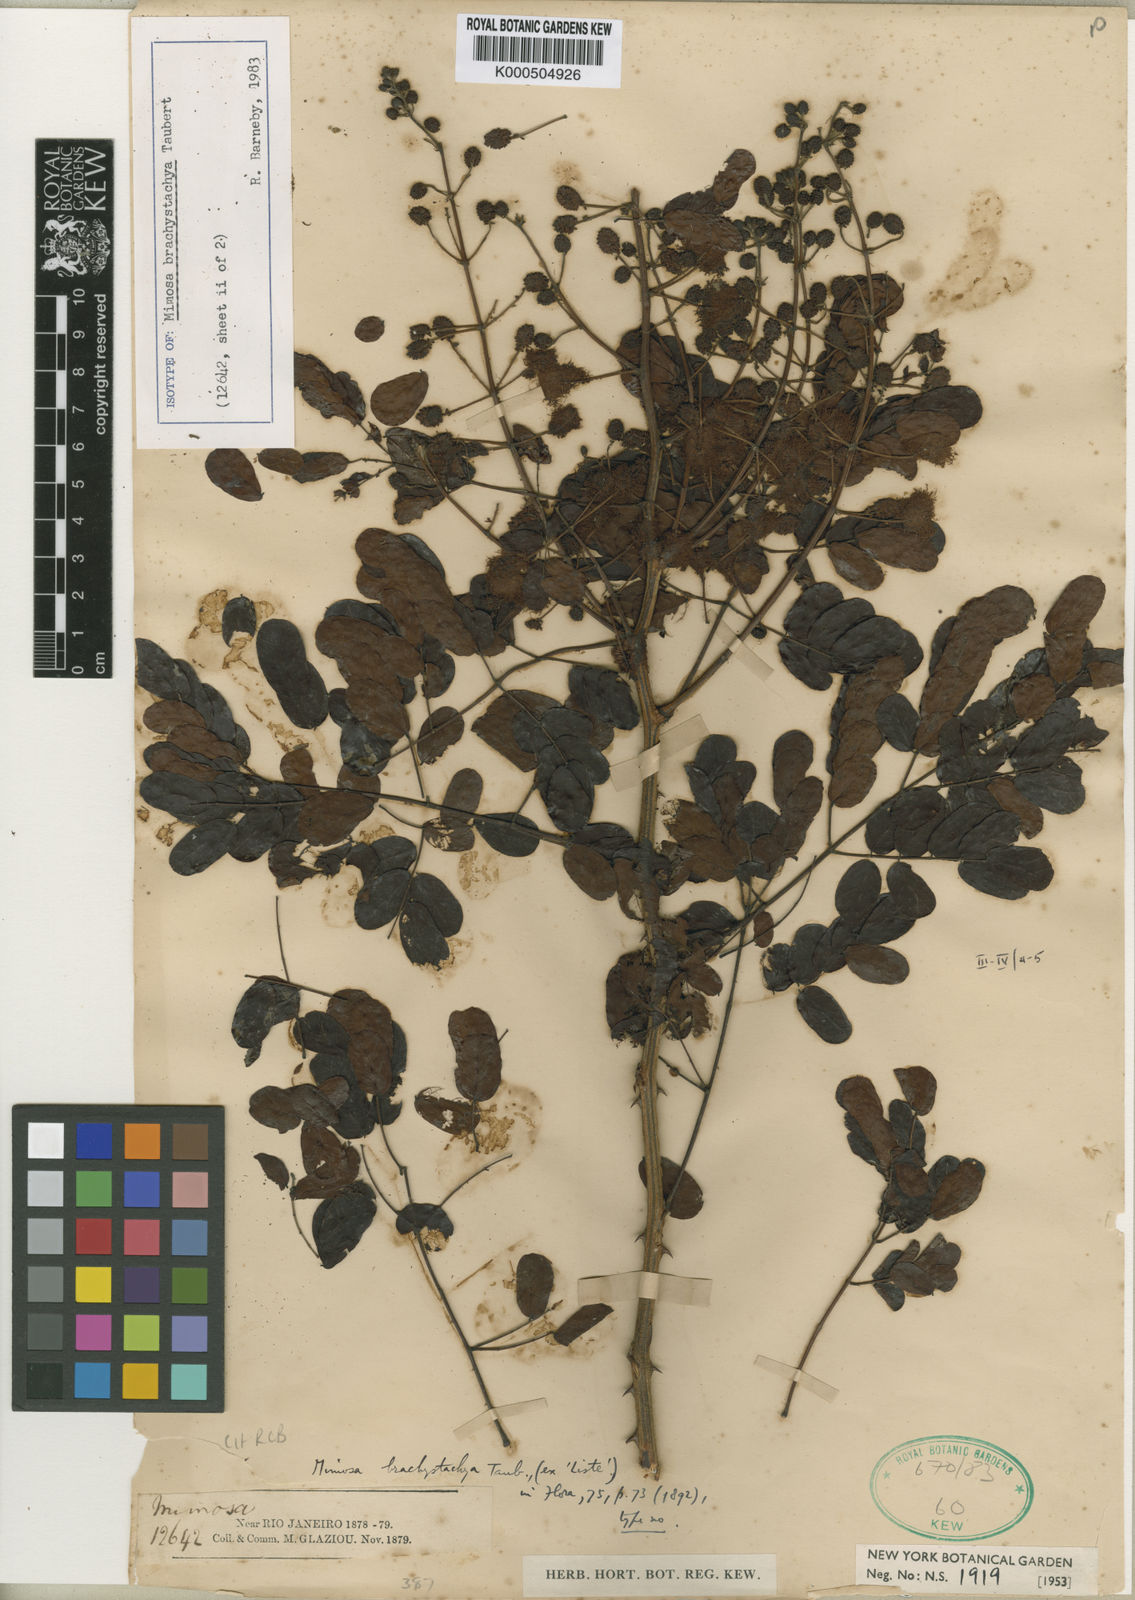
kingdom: Plantae
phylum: Tracheophyta
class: Magnoliopsida
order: Fabales
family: Fabaceae
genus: Mimosa
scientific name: Mimosa brachystachya
